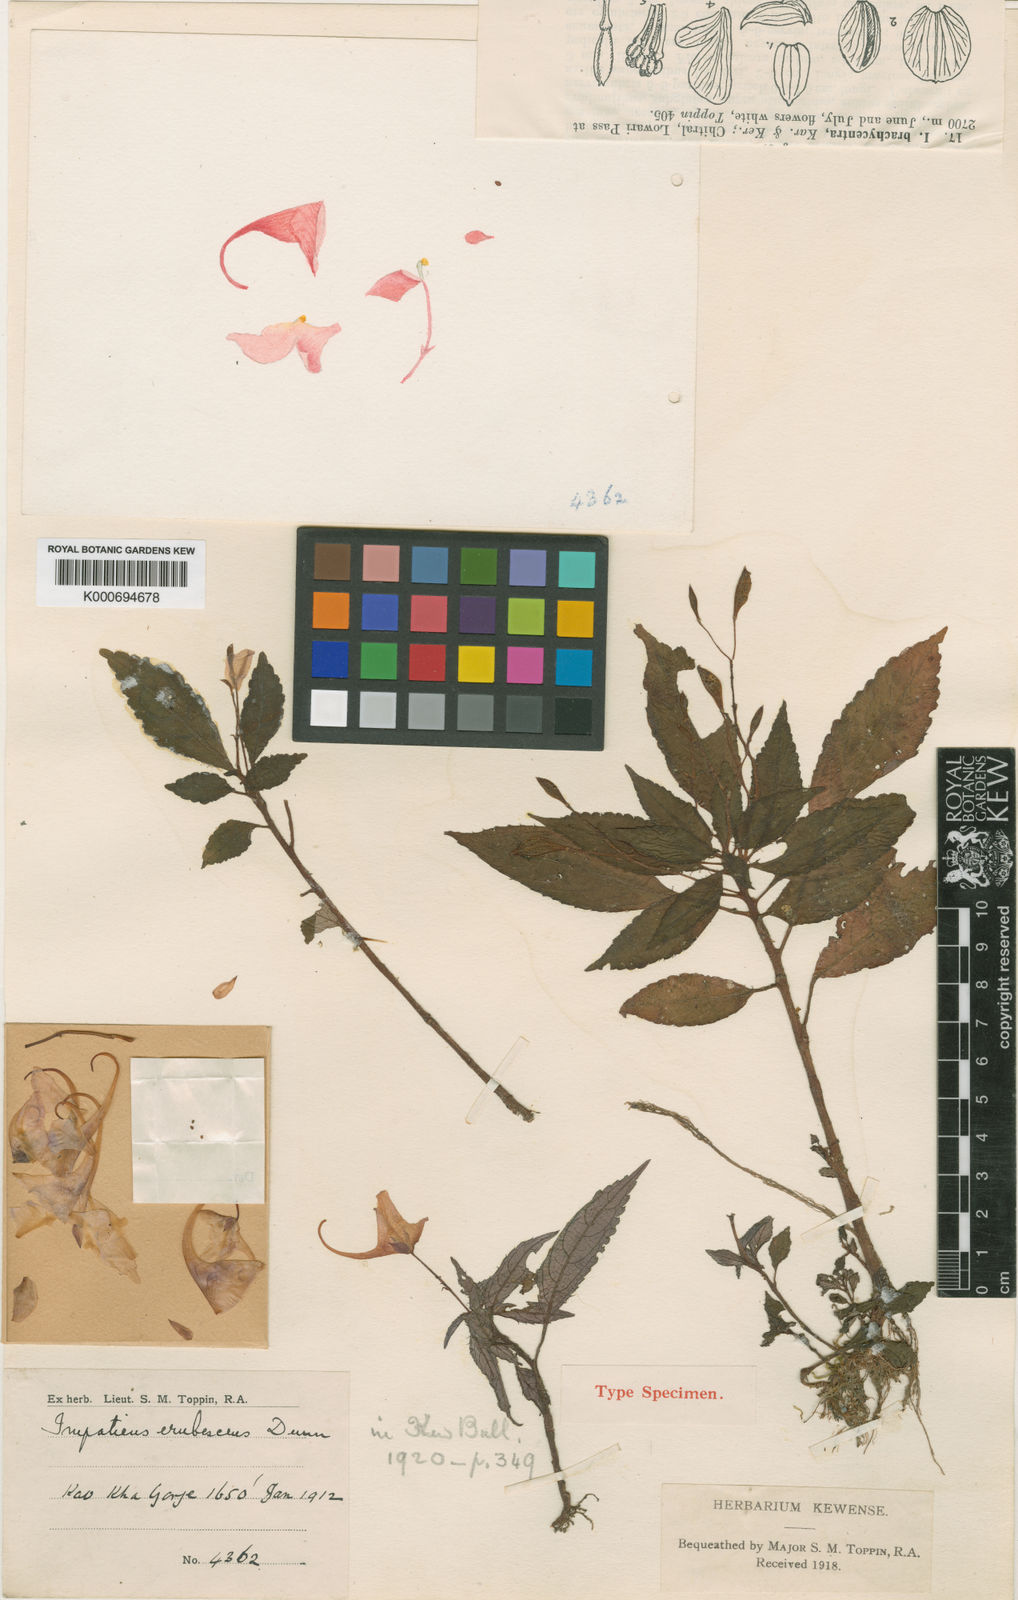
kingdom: Plantae
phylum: Tracheophyta
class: Magnoliopsida
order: Ericales
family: Balsaminaceae
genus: Impatiens
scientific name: Impatiens erubescens
